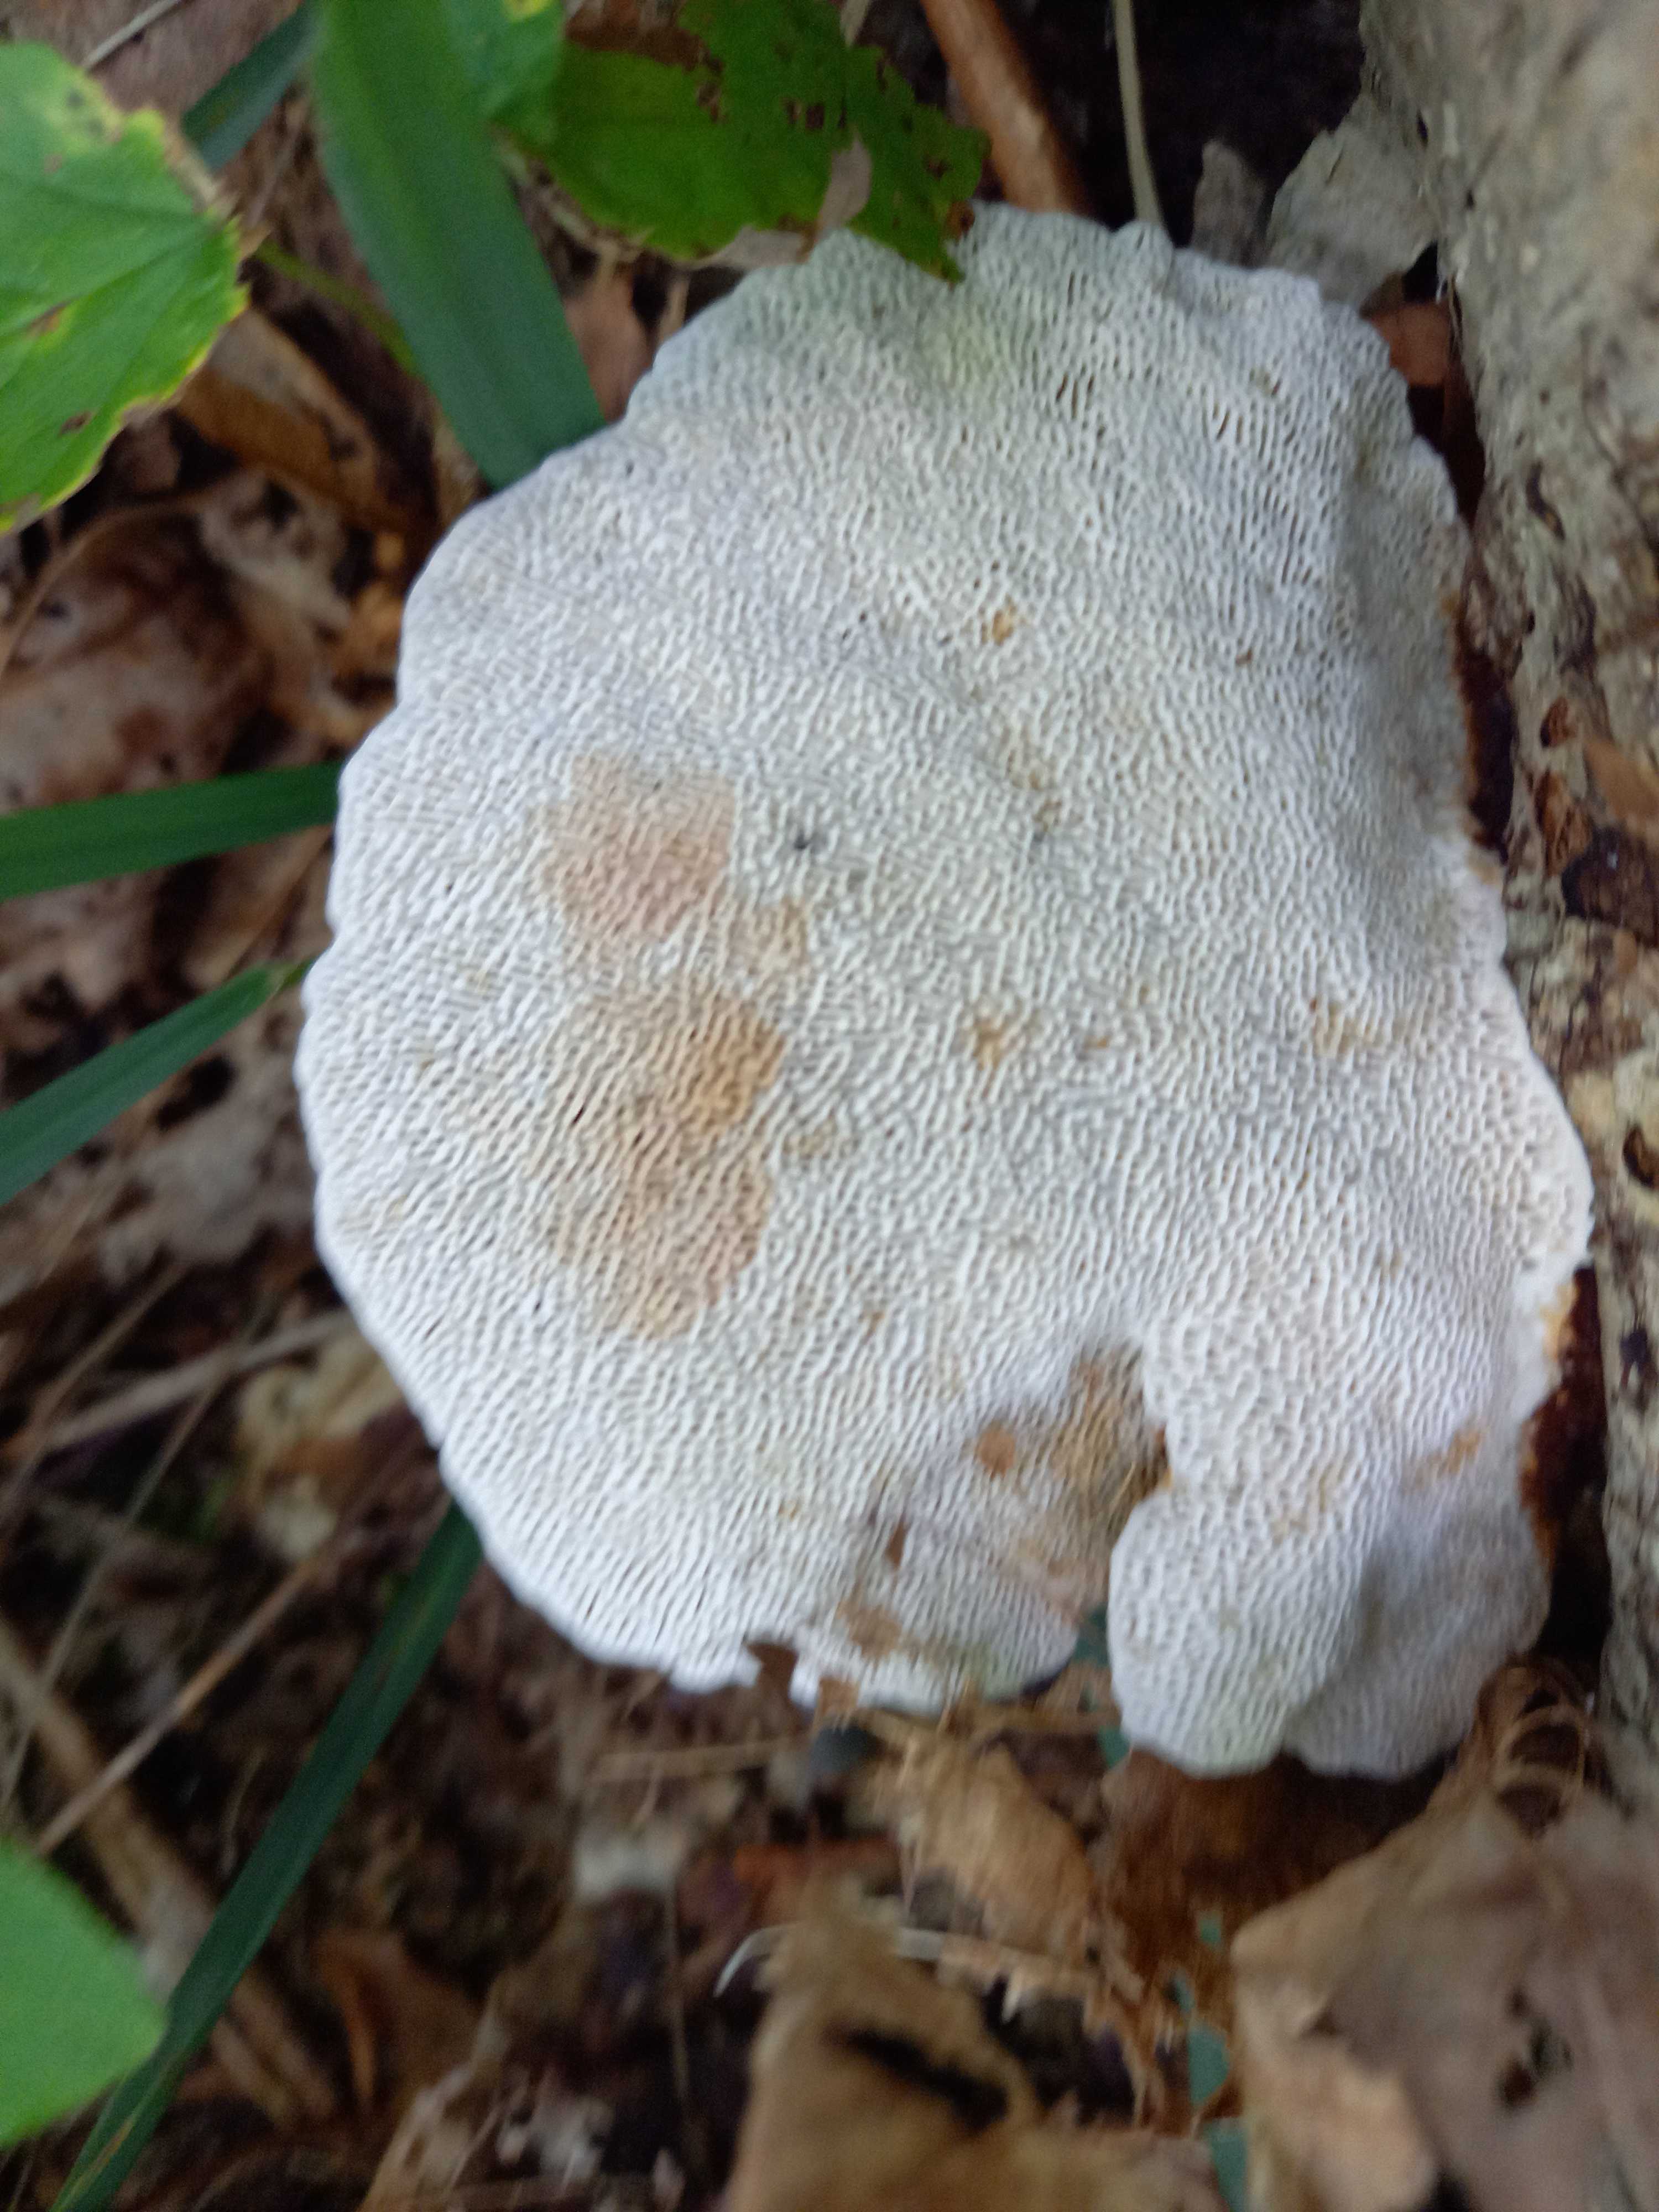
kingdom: Fungi
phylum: Basidiomycota
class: Agaricomycetes
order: Polyporales
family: Polyporaceae
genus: Daedaleopsis
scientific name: Daedaleopsis confragosa
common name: rødmende læderporesvamp
